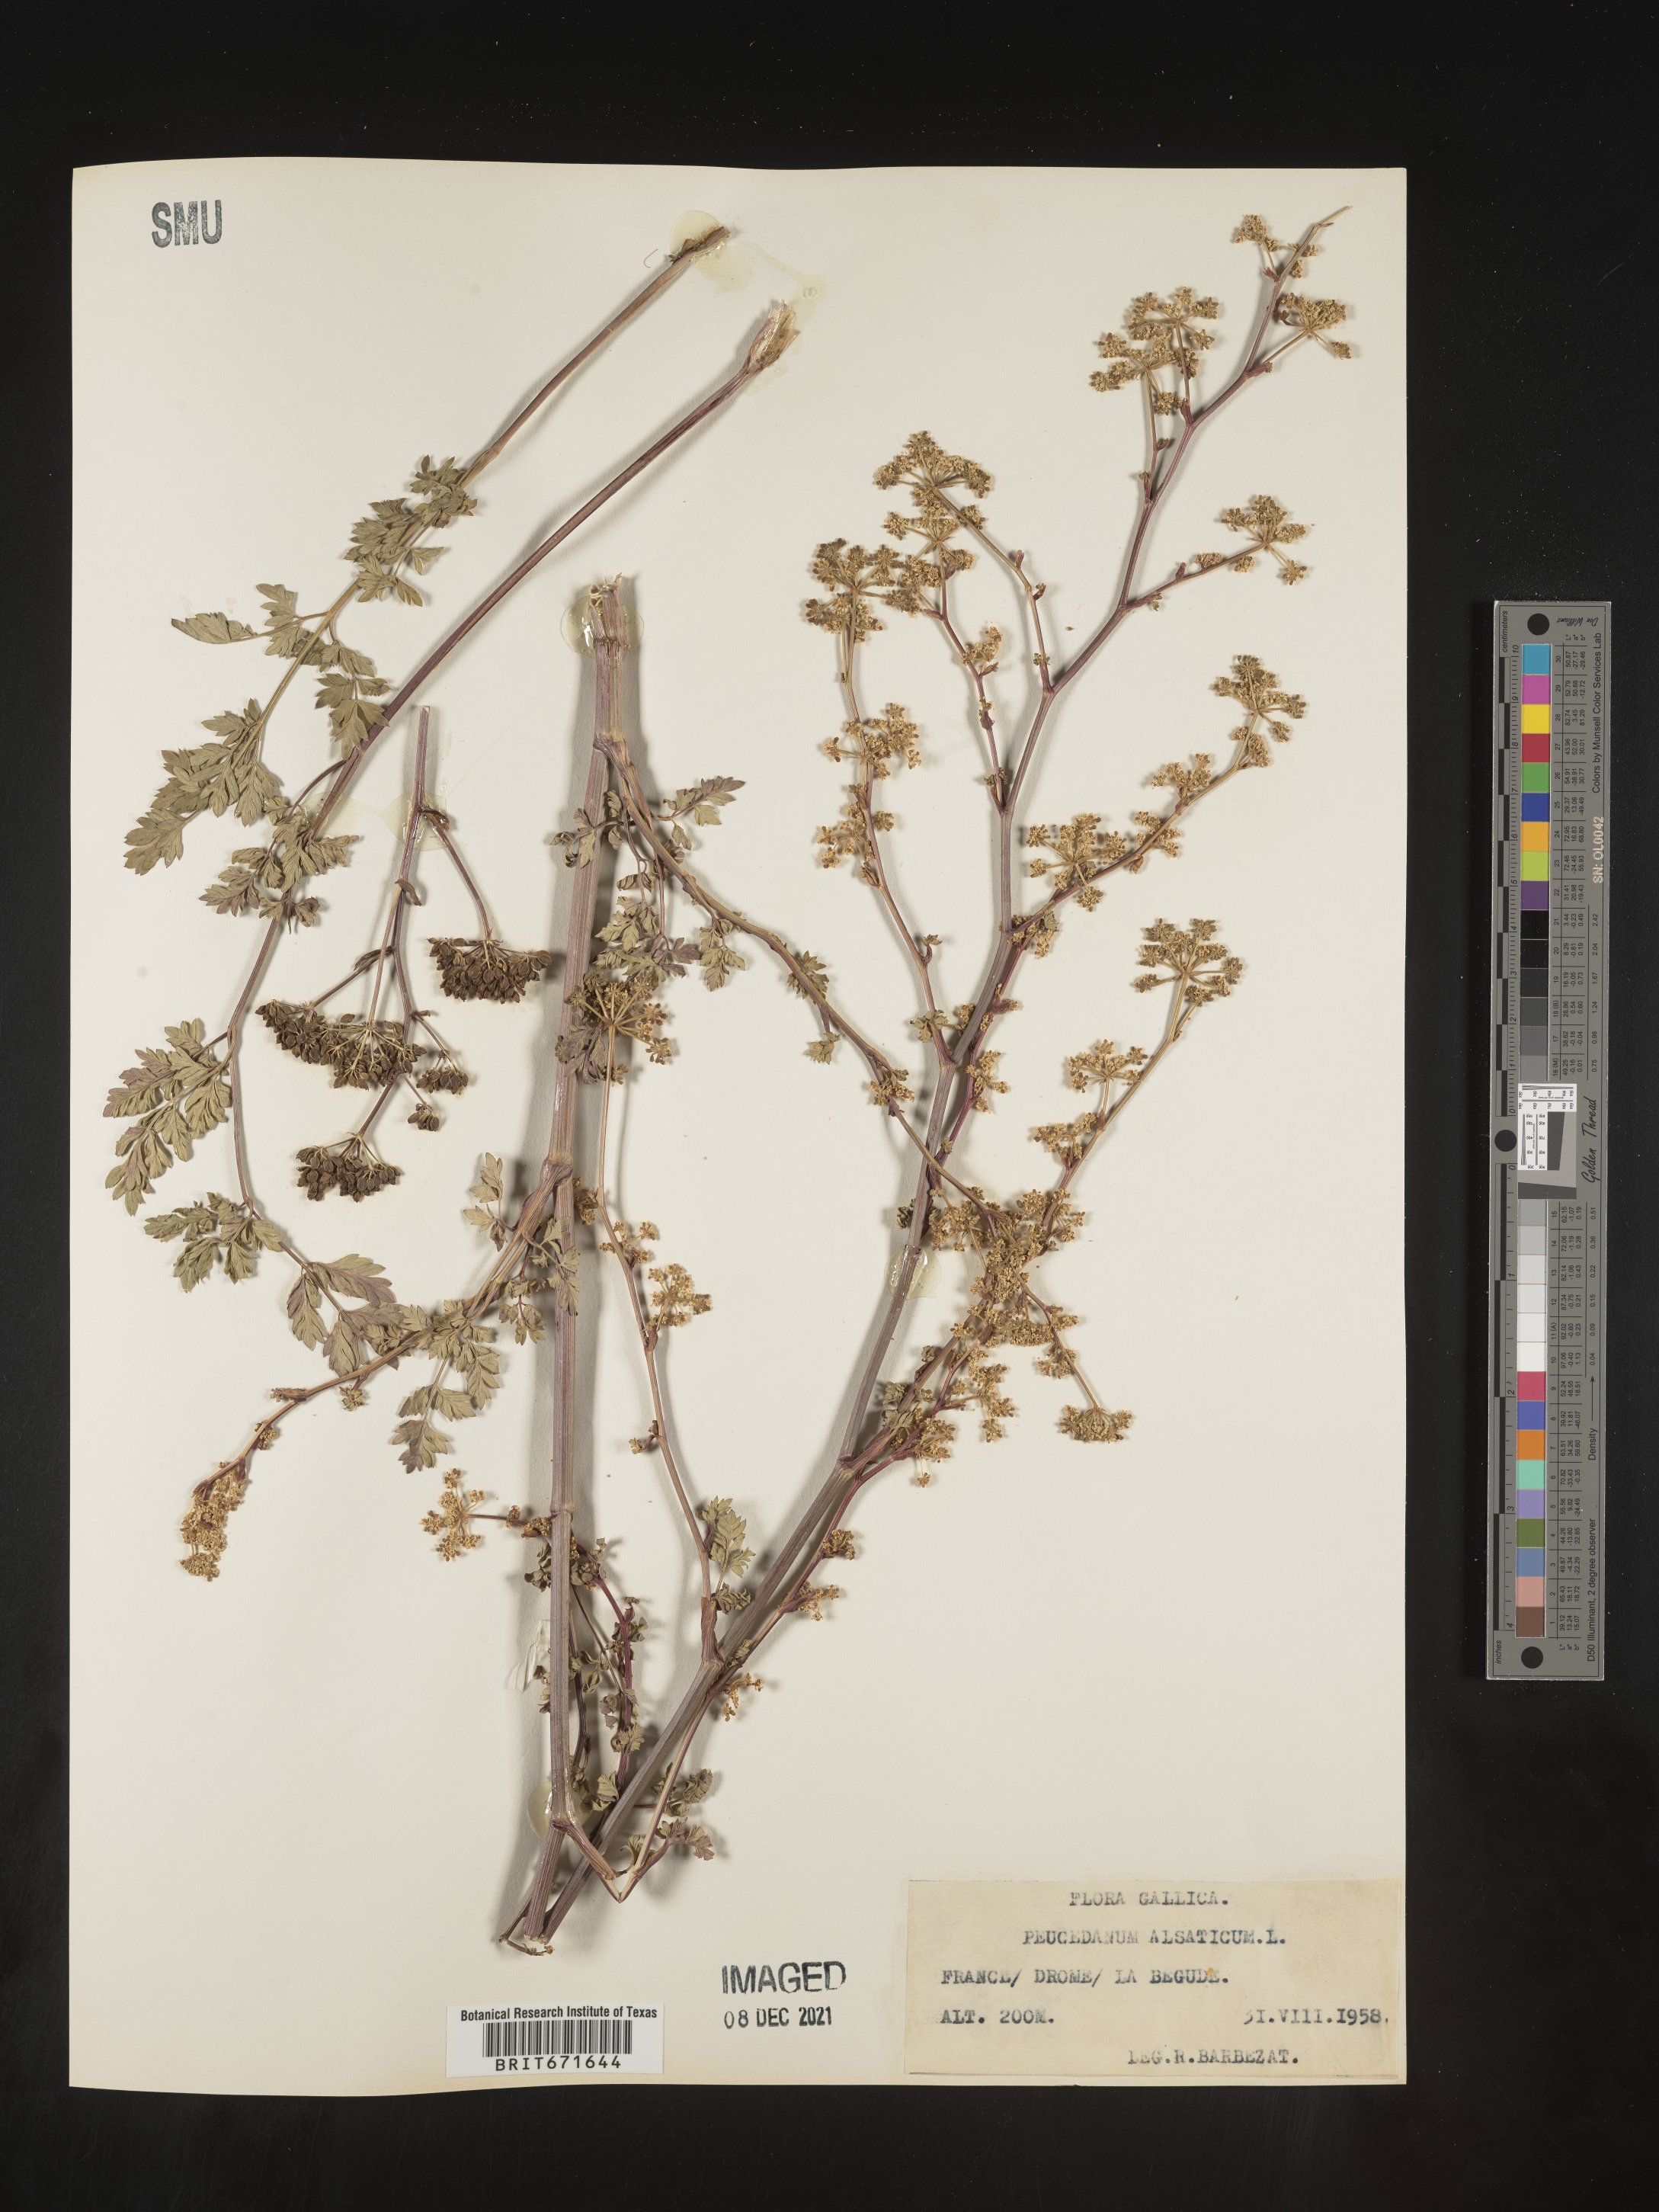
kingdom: Plantae
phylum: Tracheophyta
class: Magnoliopsida
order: Apiales
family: Apiaceae
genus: Peucedanum
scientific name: Peucedanum
